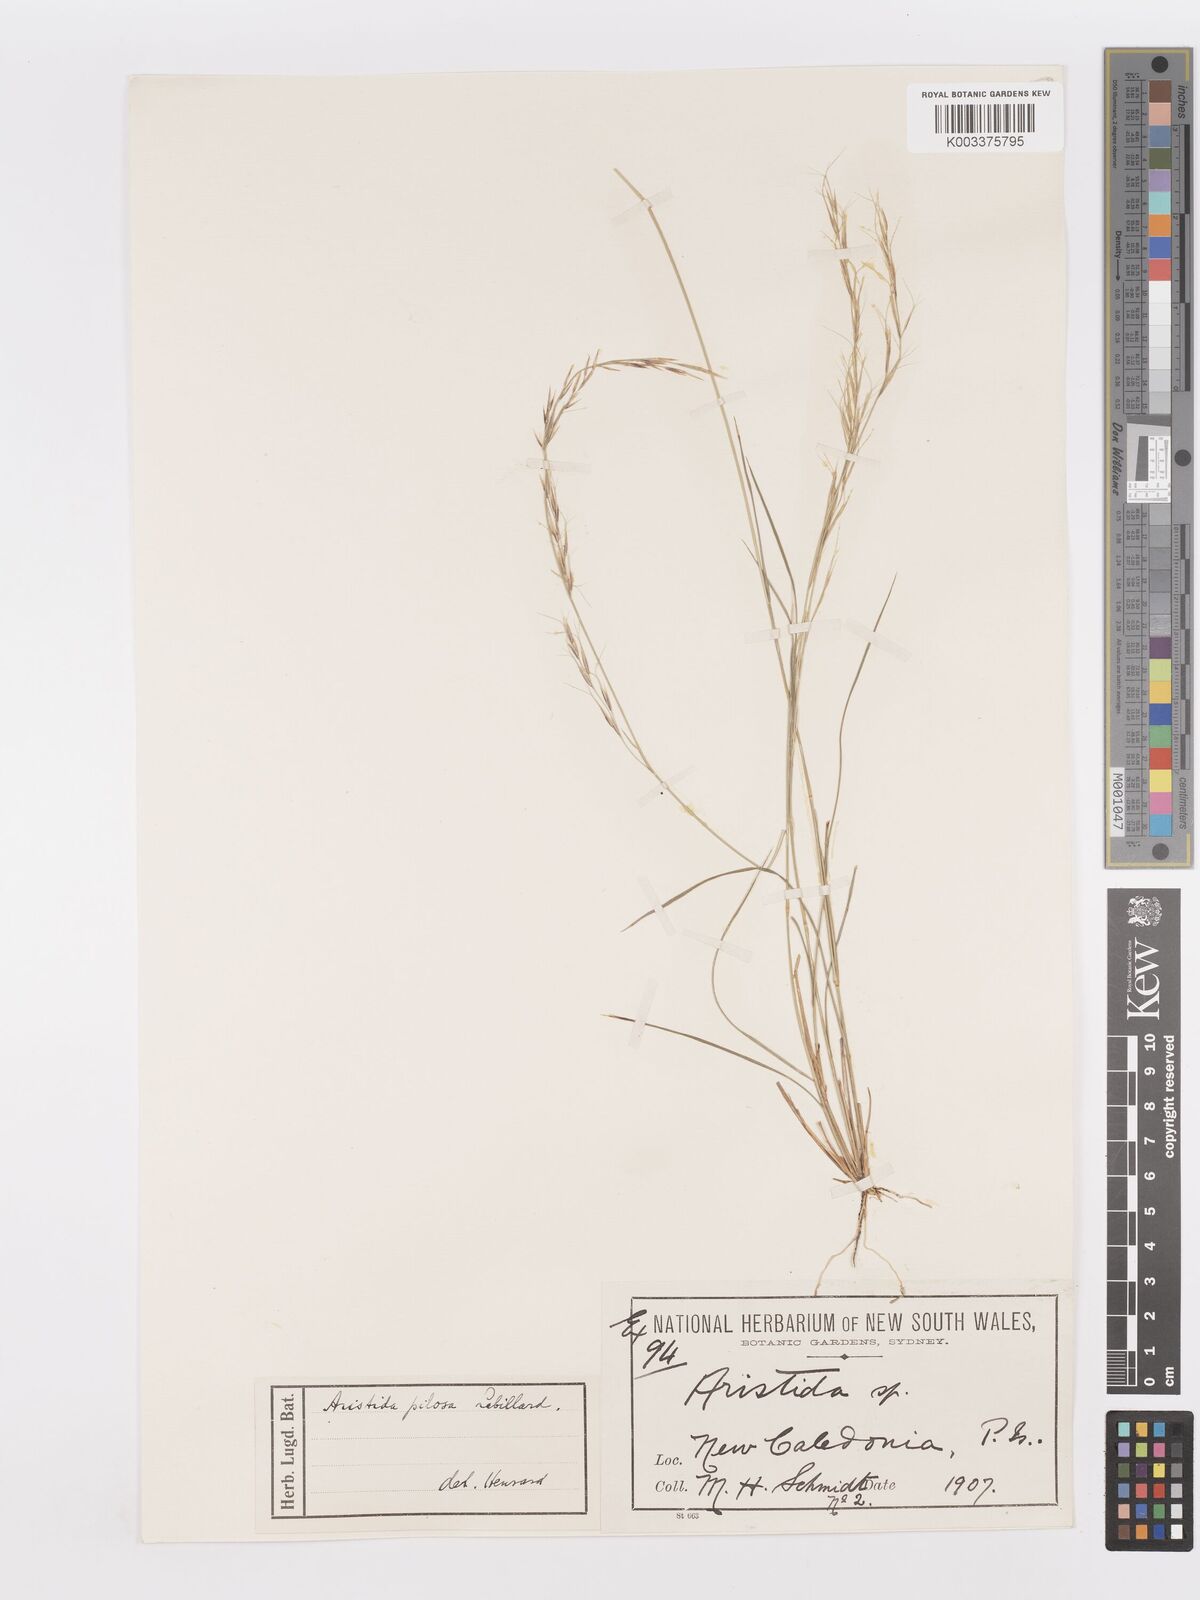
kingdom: Plantae
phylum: Tracheophyta
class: Liliopsida
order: Poales
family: Poaceae
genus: Aristida
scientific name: Aristida pilosa
